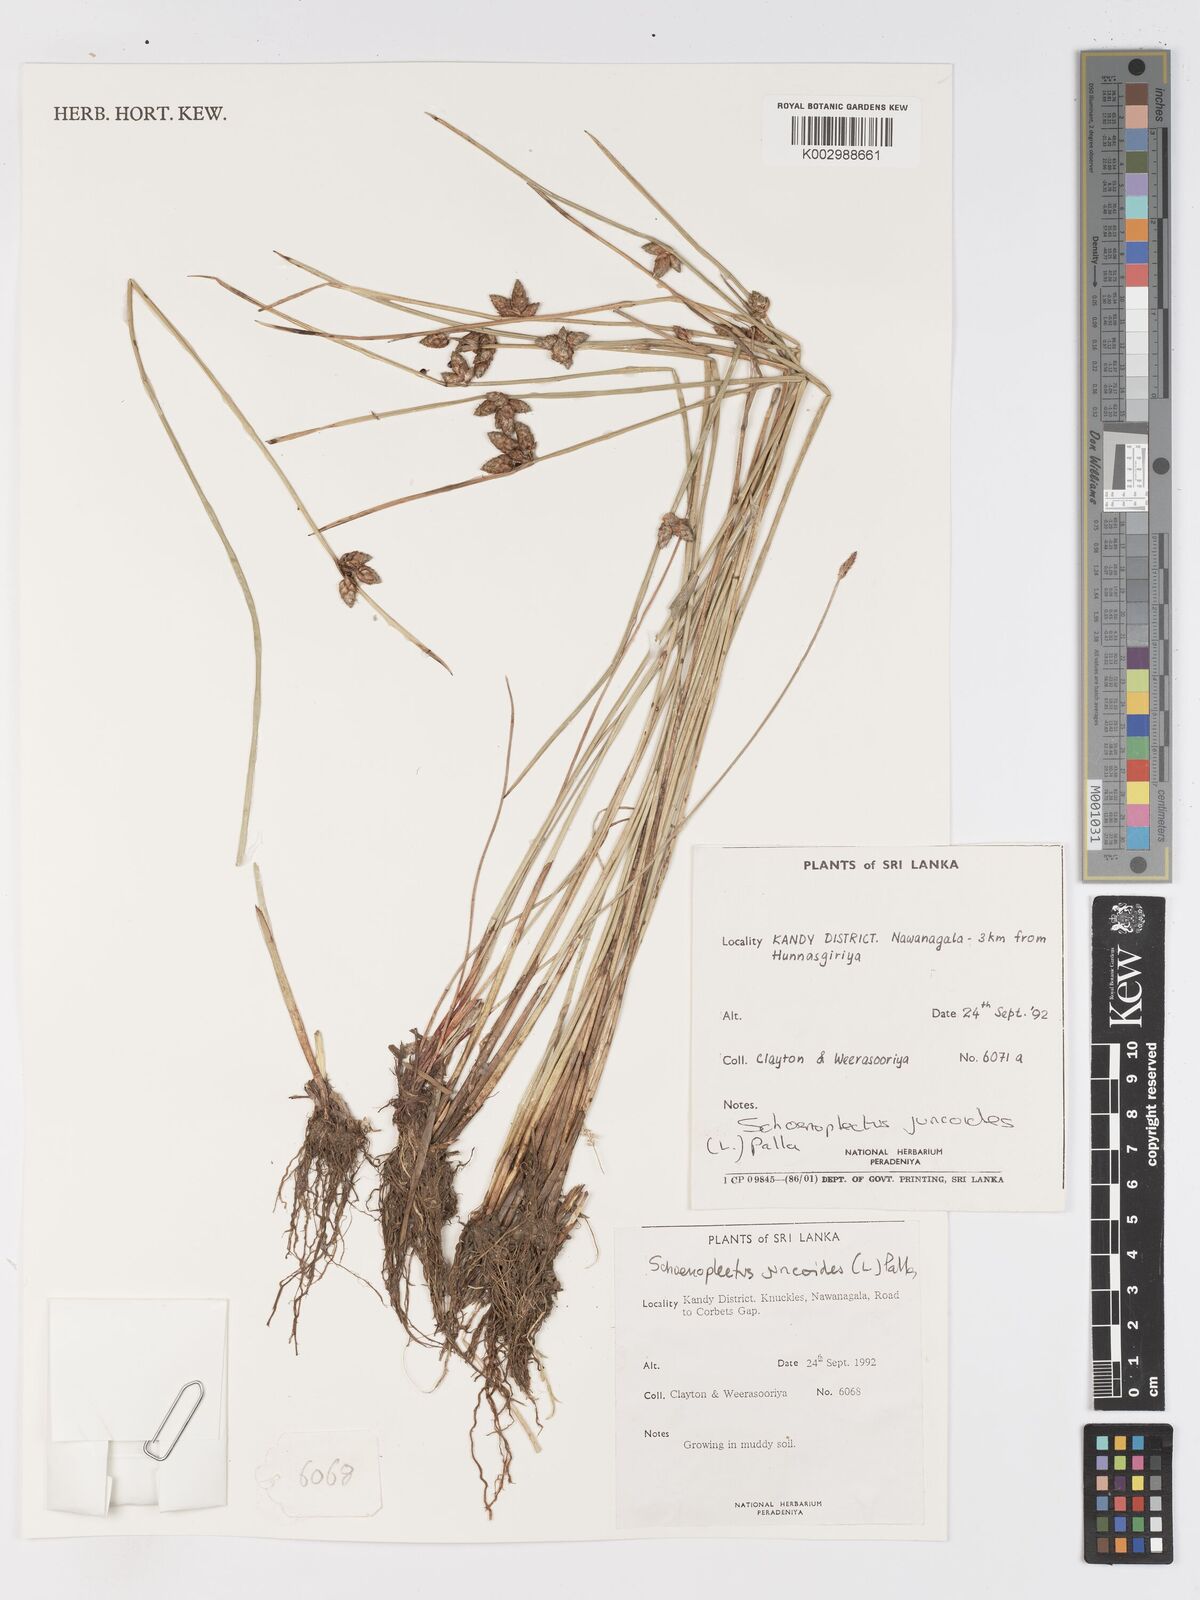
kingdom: Plantae
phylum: Tracheophyta
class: Liliopsida
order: Poales
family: Cyperaceae
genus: Schoenoplectiella
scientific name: Schoenoplectiella juncoides
